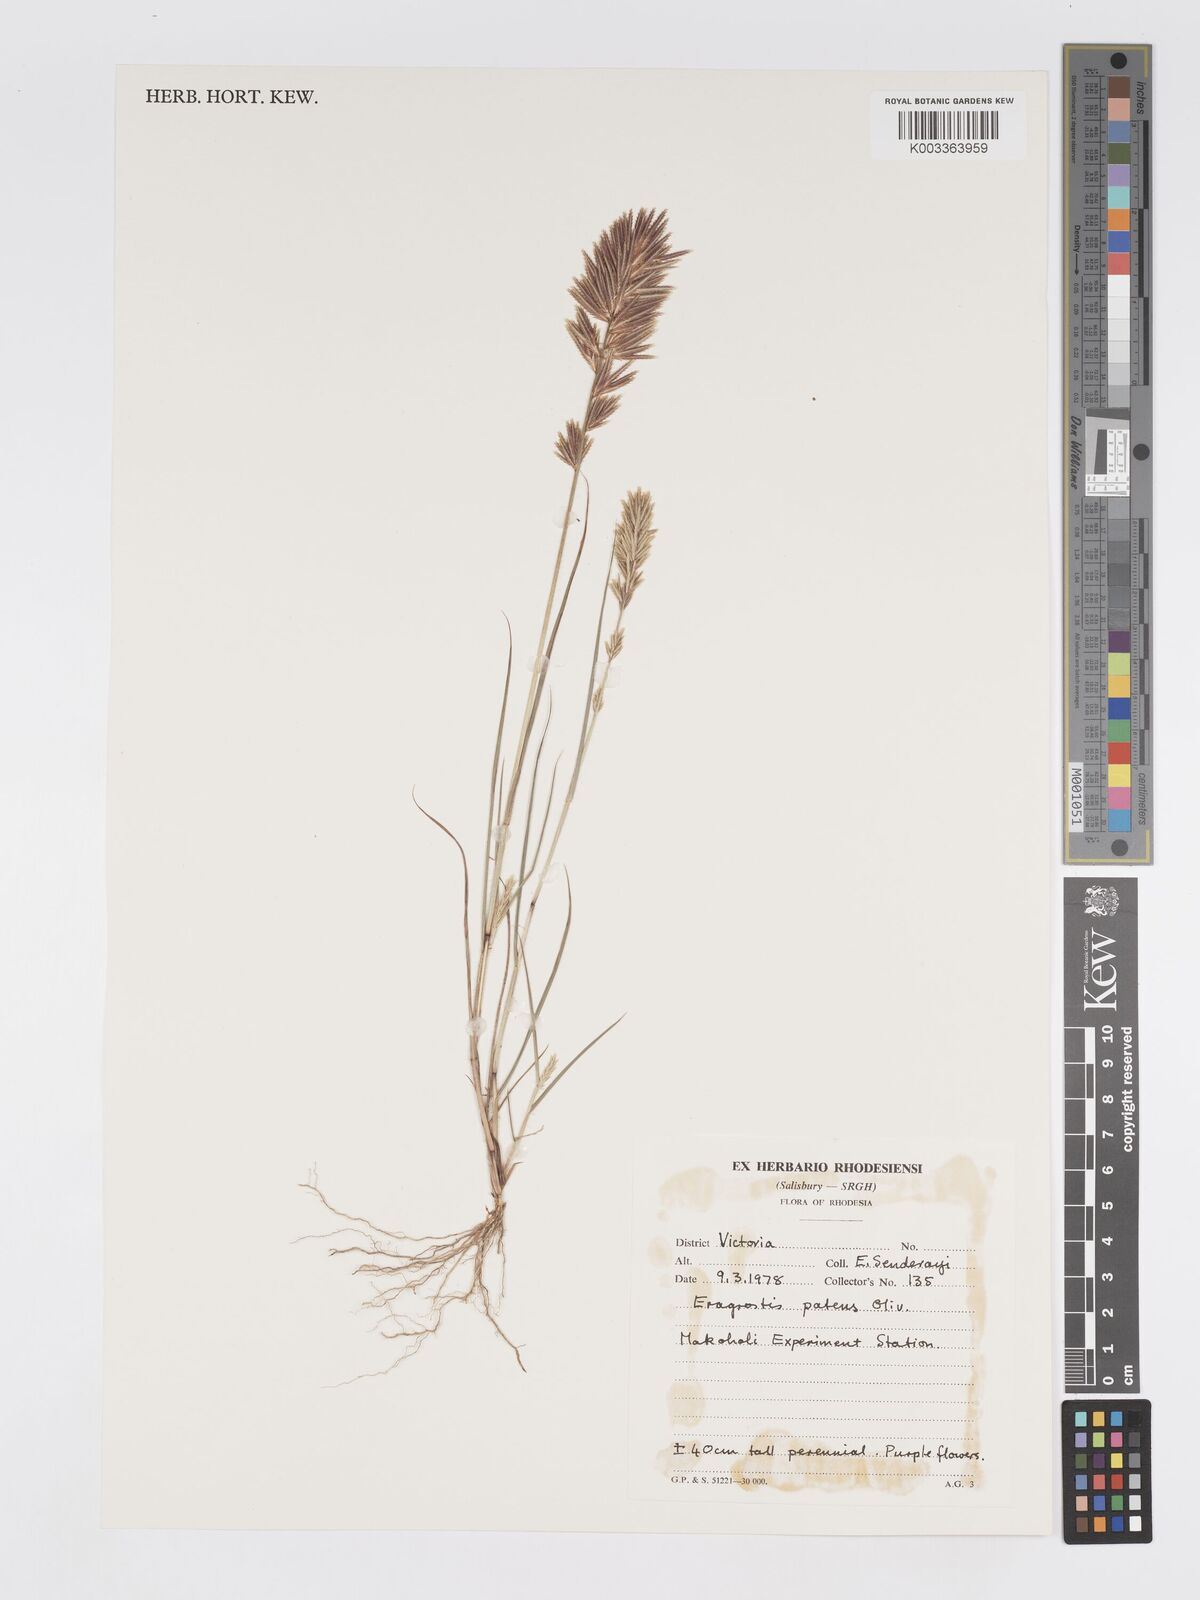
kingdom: Plantae
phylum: Tracheophyta
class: Liliopsida
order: Poales
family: Poaceae
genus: Eragrostis
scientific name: Eragrostis patens
